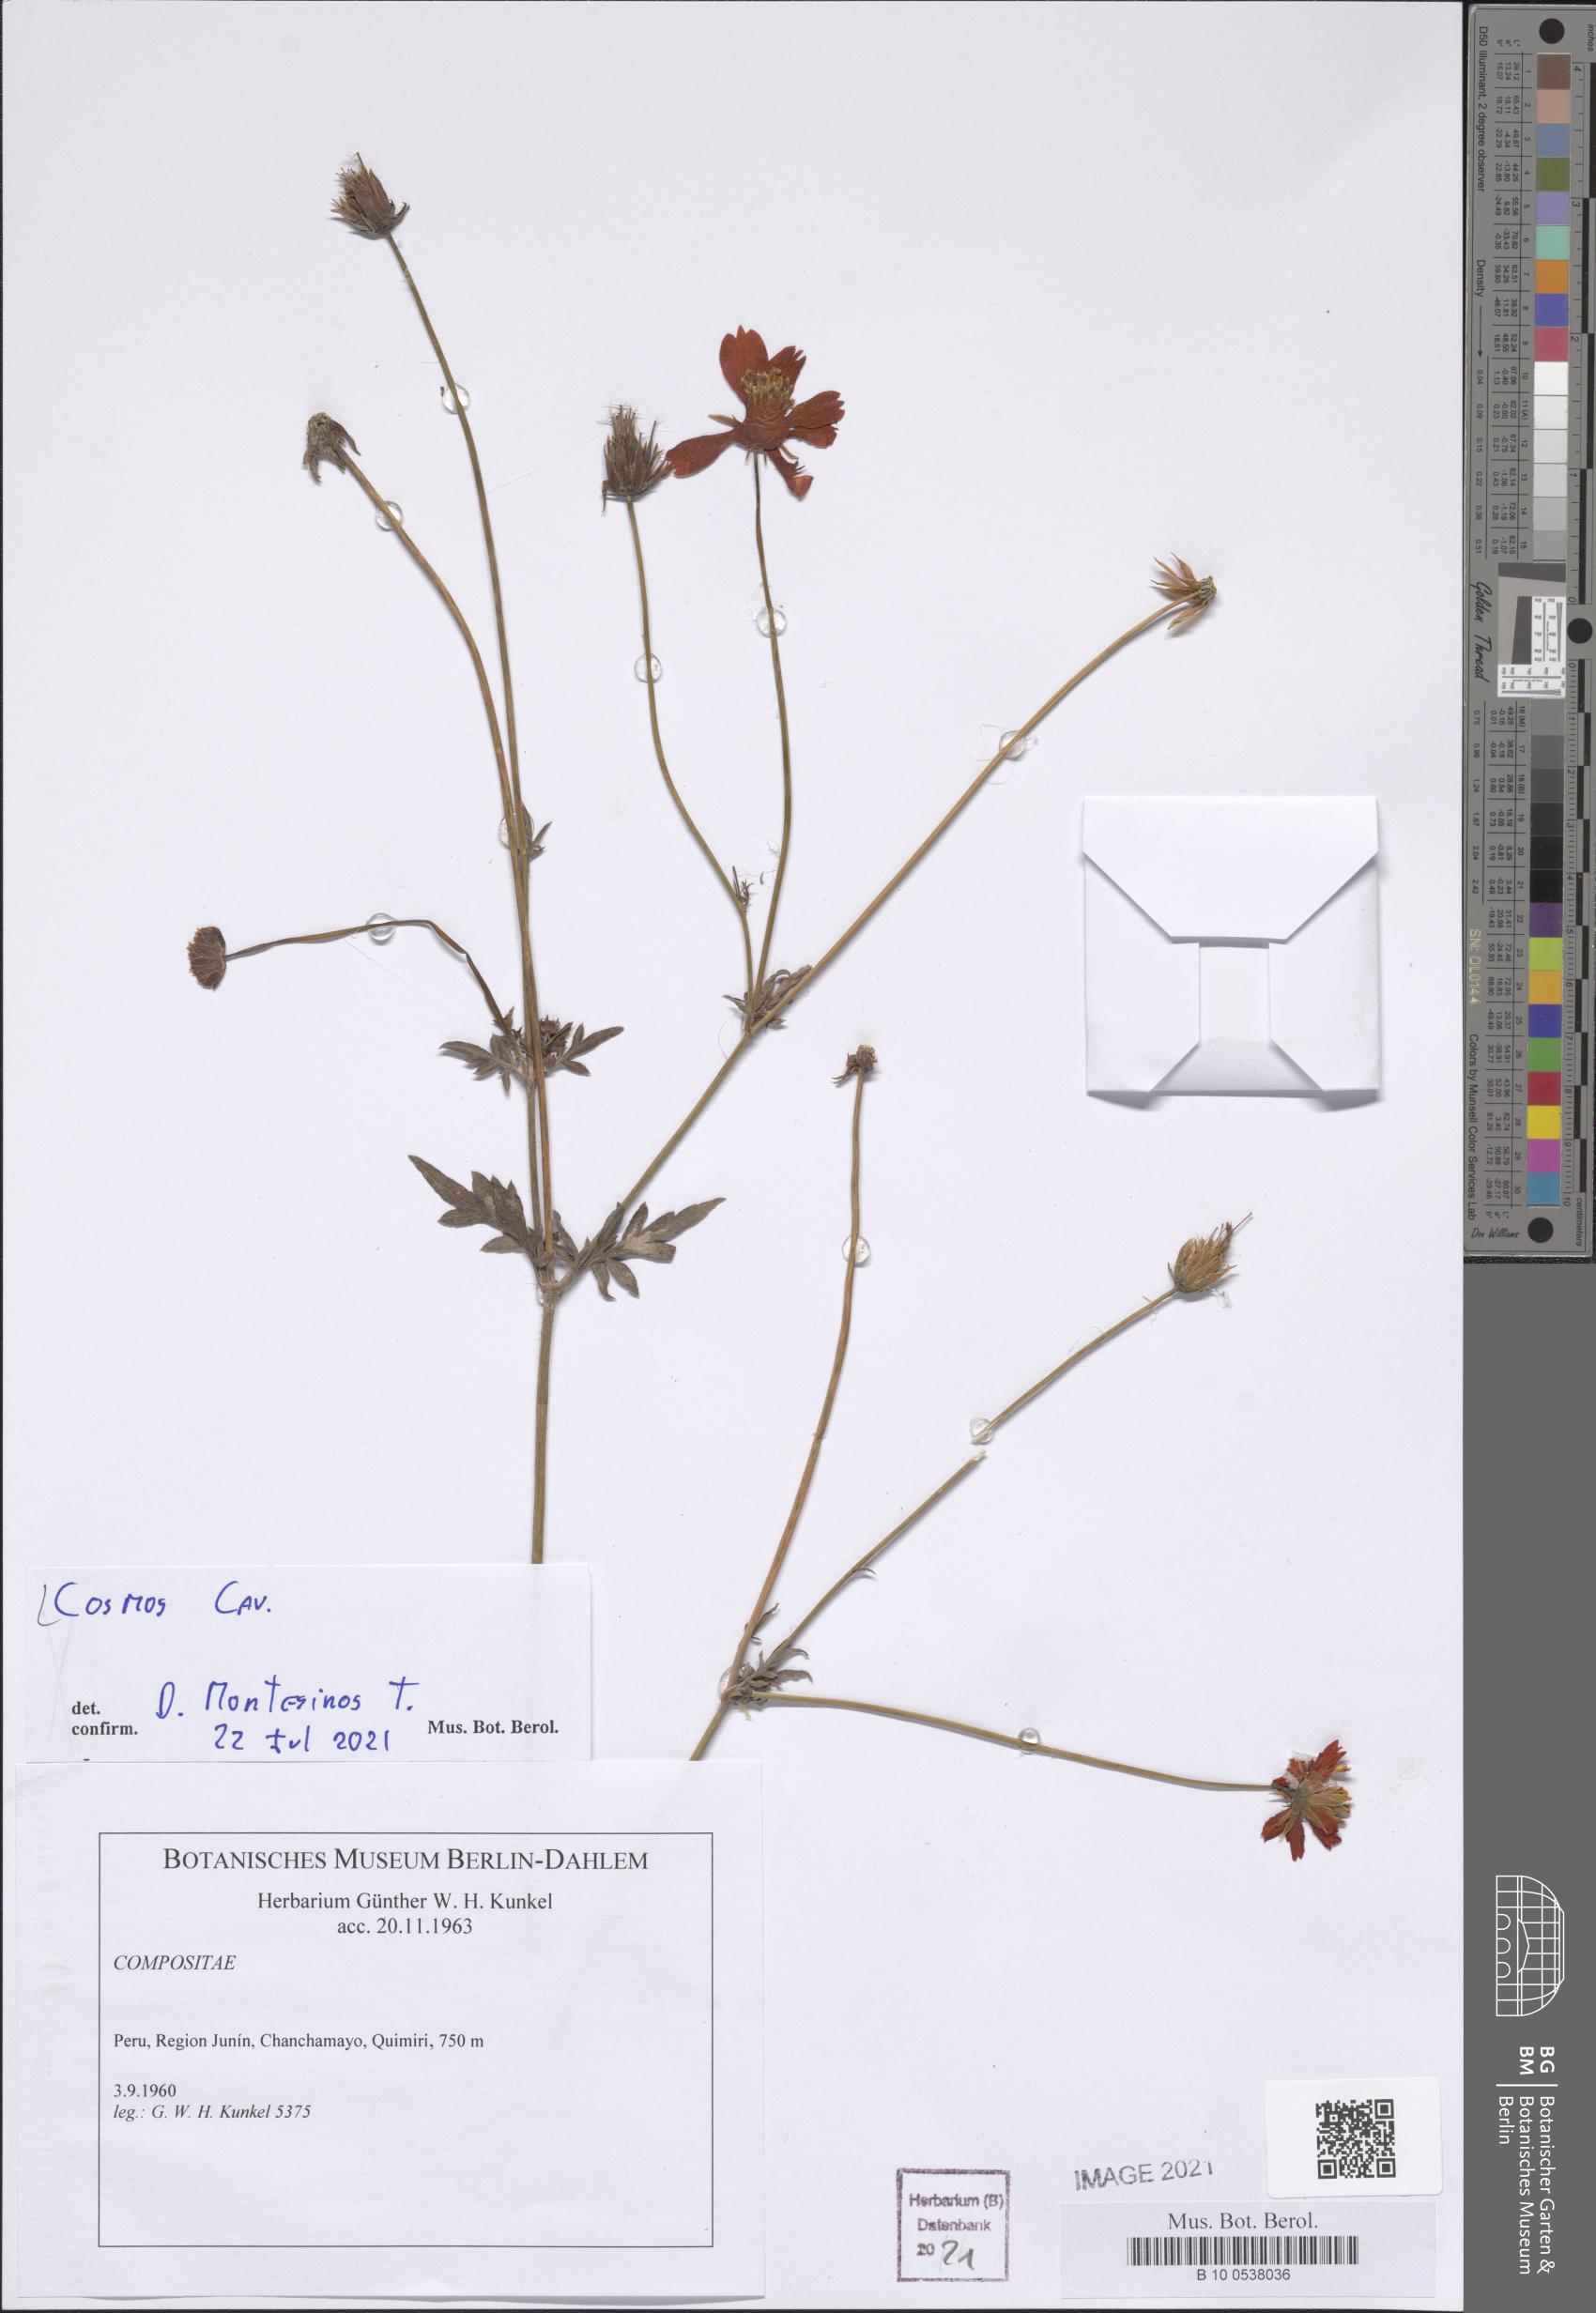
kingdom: Plantae
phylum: Tracheophyta
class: Magnoliopsida
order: Asterales
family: Asteraceae
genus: Cosmos
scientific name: Cosmos
